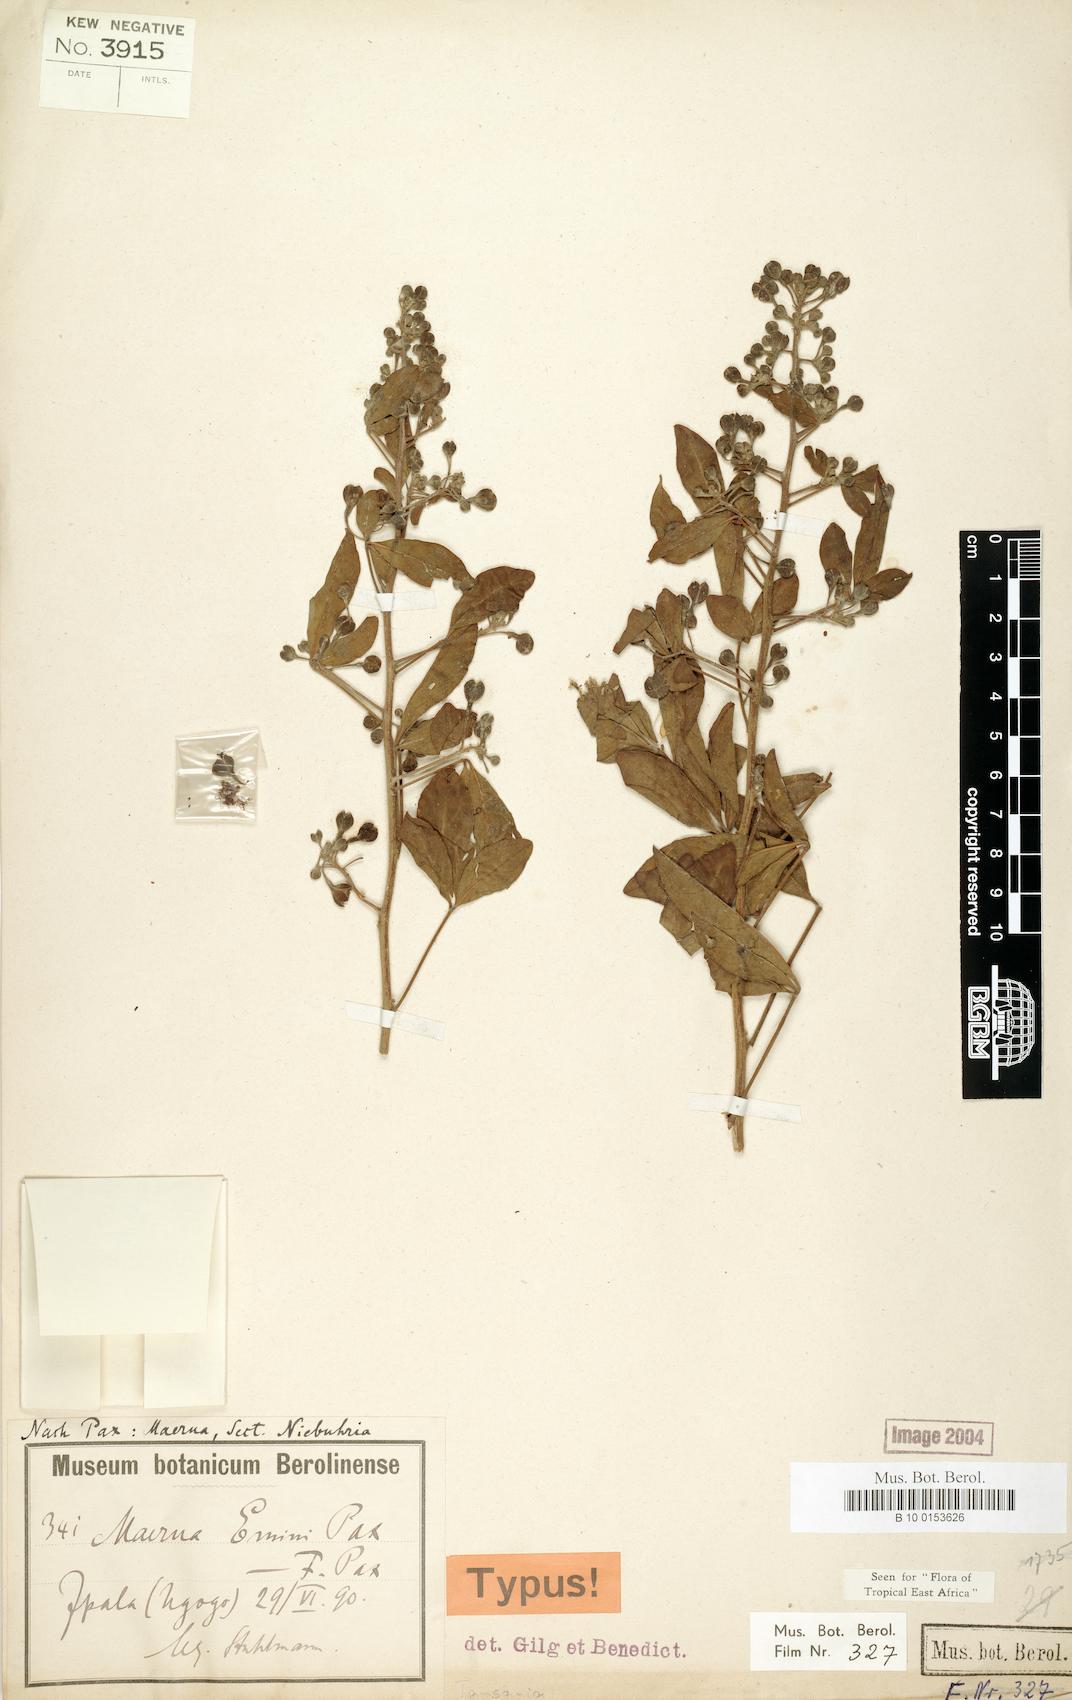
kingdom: Plantae
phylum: Tracheophyta
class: Magnoliopsida
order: Brassicales
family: Capparaceae
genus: Maerua
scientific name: Maerua eminii
